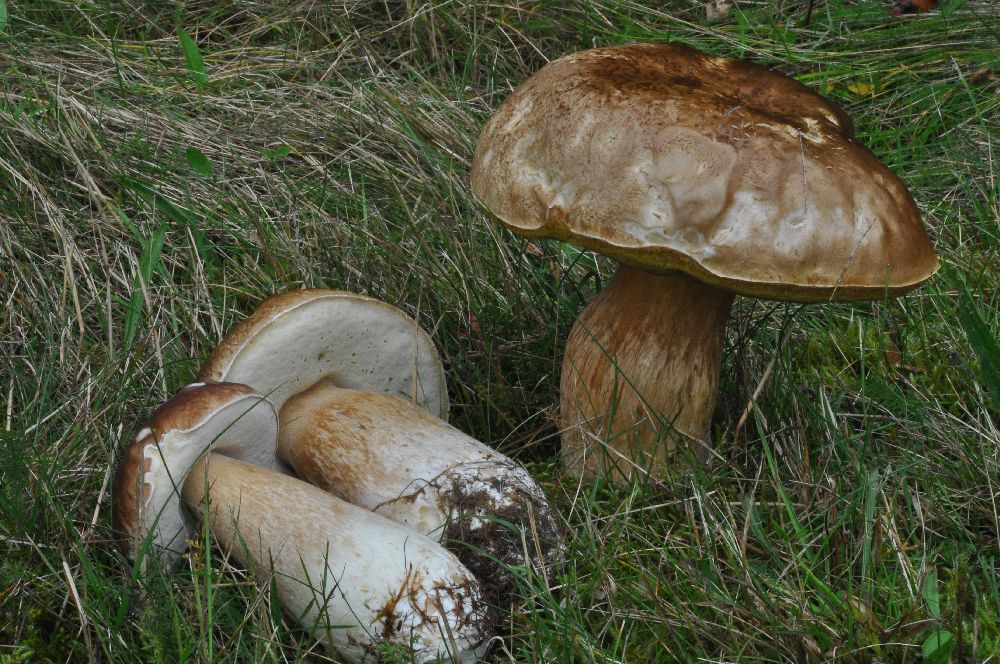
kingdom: Fungi
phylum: Basidiomycota
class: Agaricomycetes
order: Boletales
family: Boletaceae
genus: Boletus
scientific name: Boletus edulis
